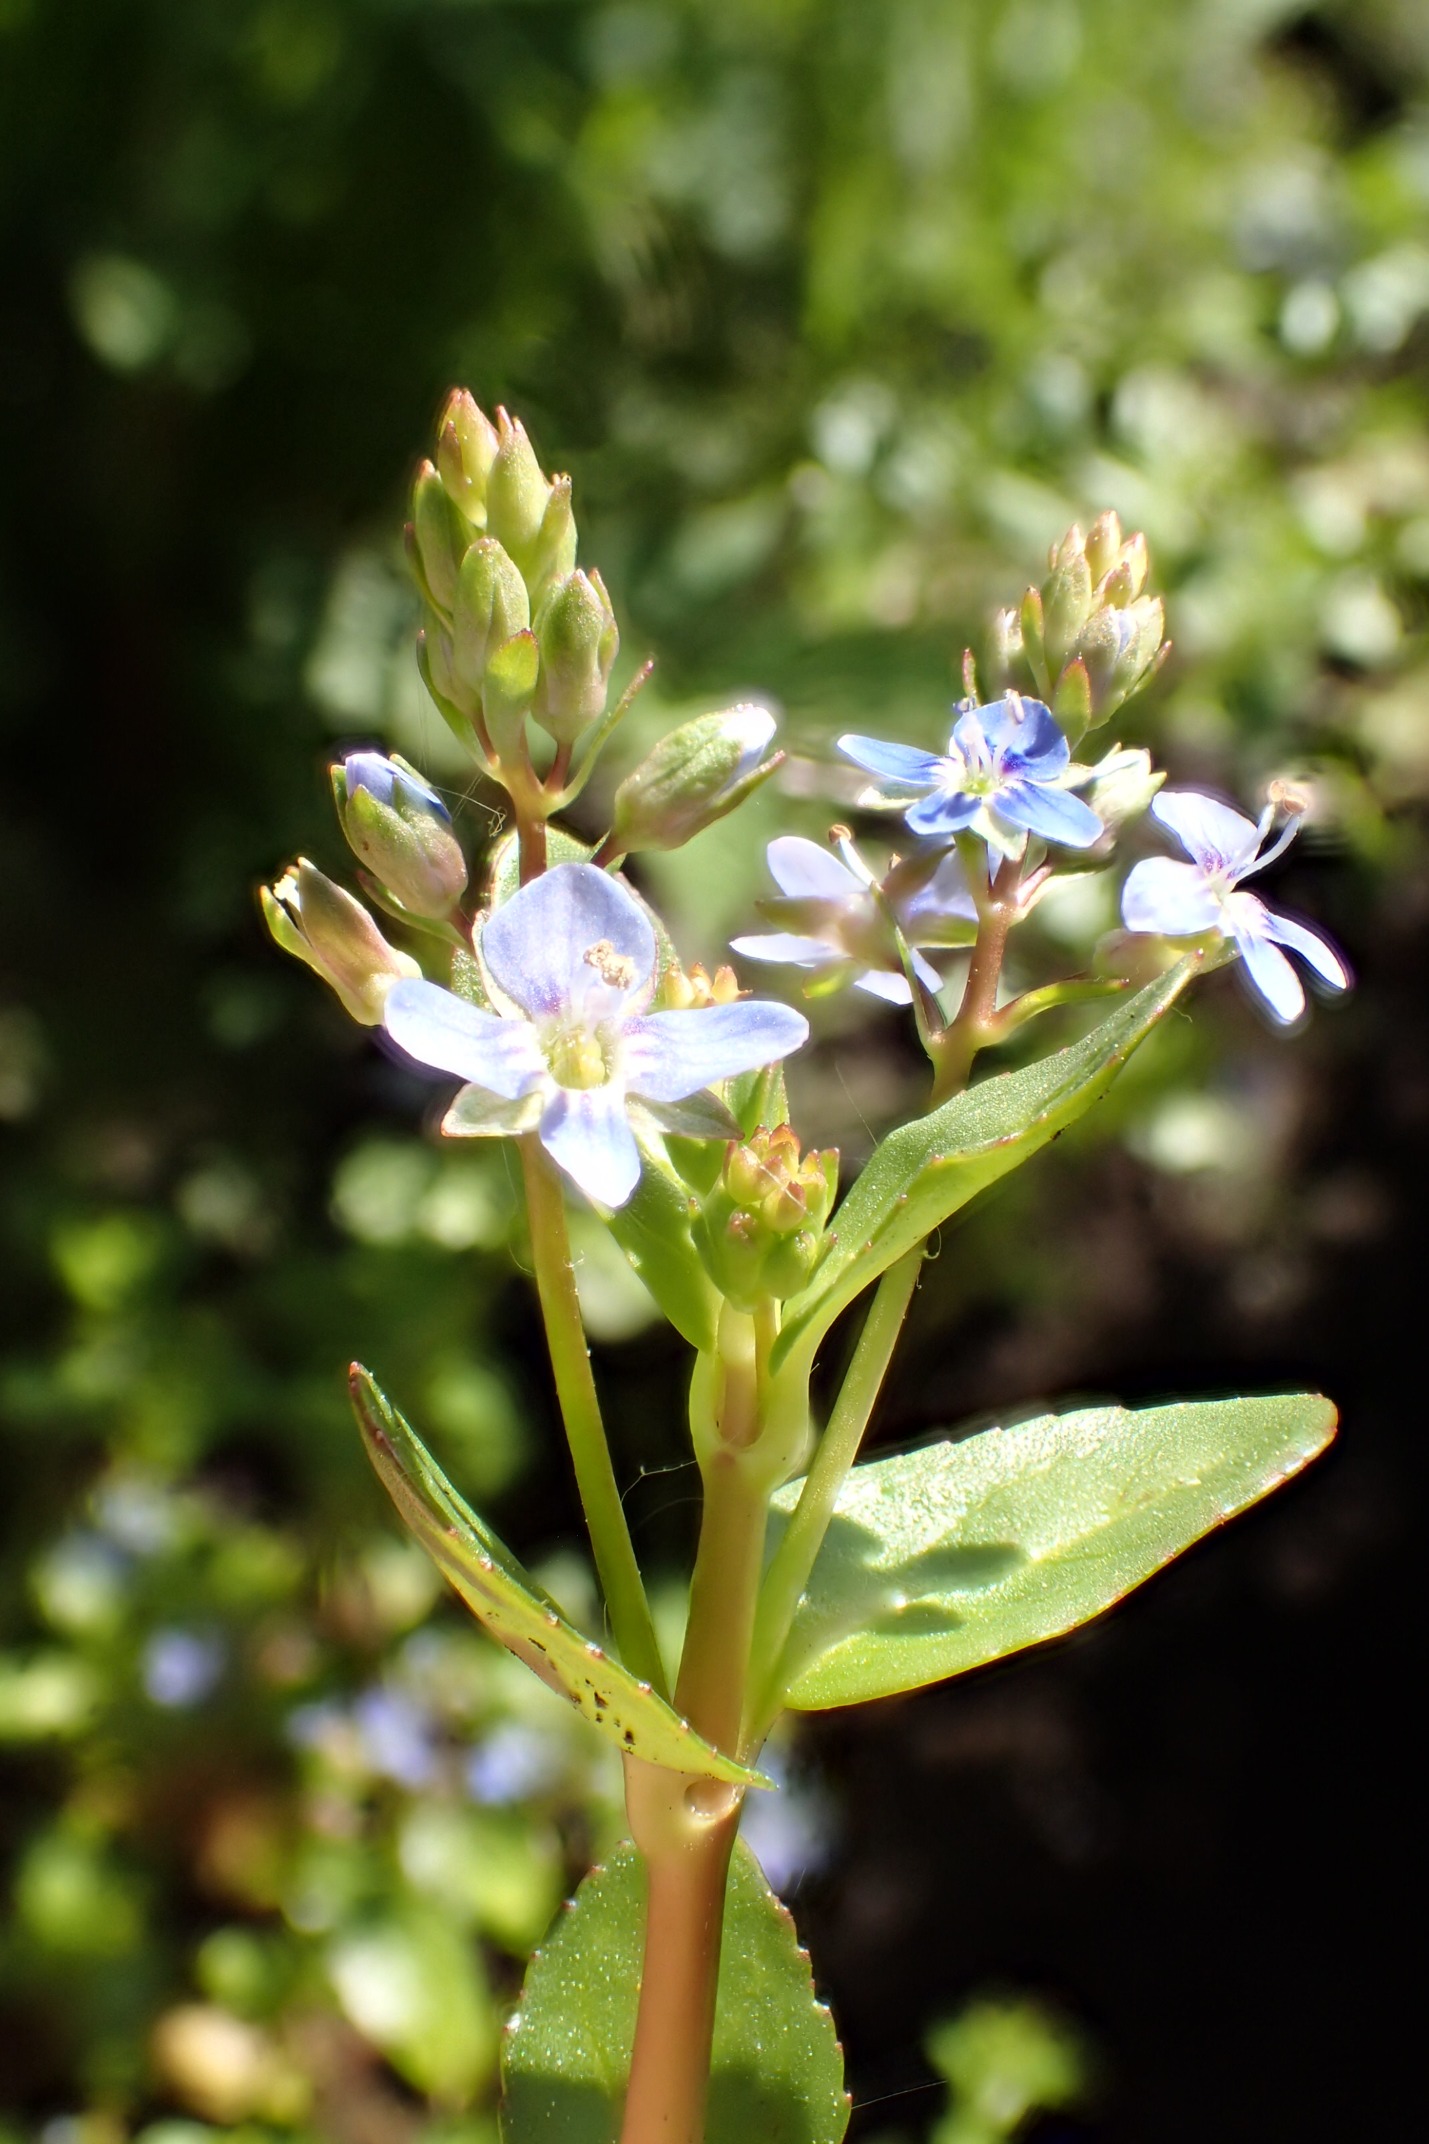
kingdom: Plantae
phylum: Tracheophyta
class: Magnoliopsida
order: Lamiales
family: Plantaginaceae
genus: Veronica
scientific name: Veronica beccabunga
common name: Tykbladet ærenpris
